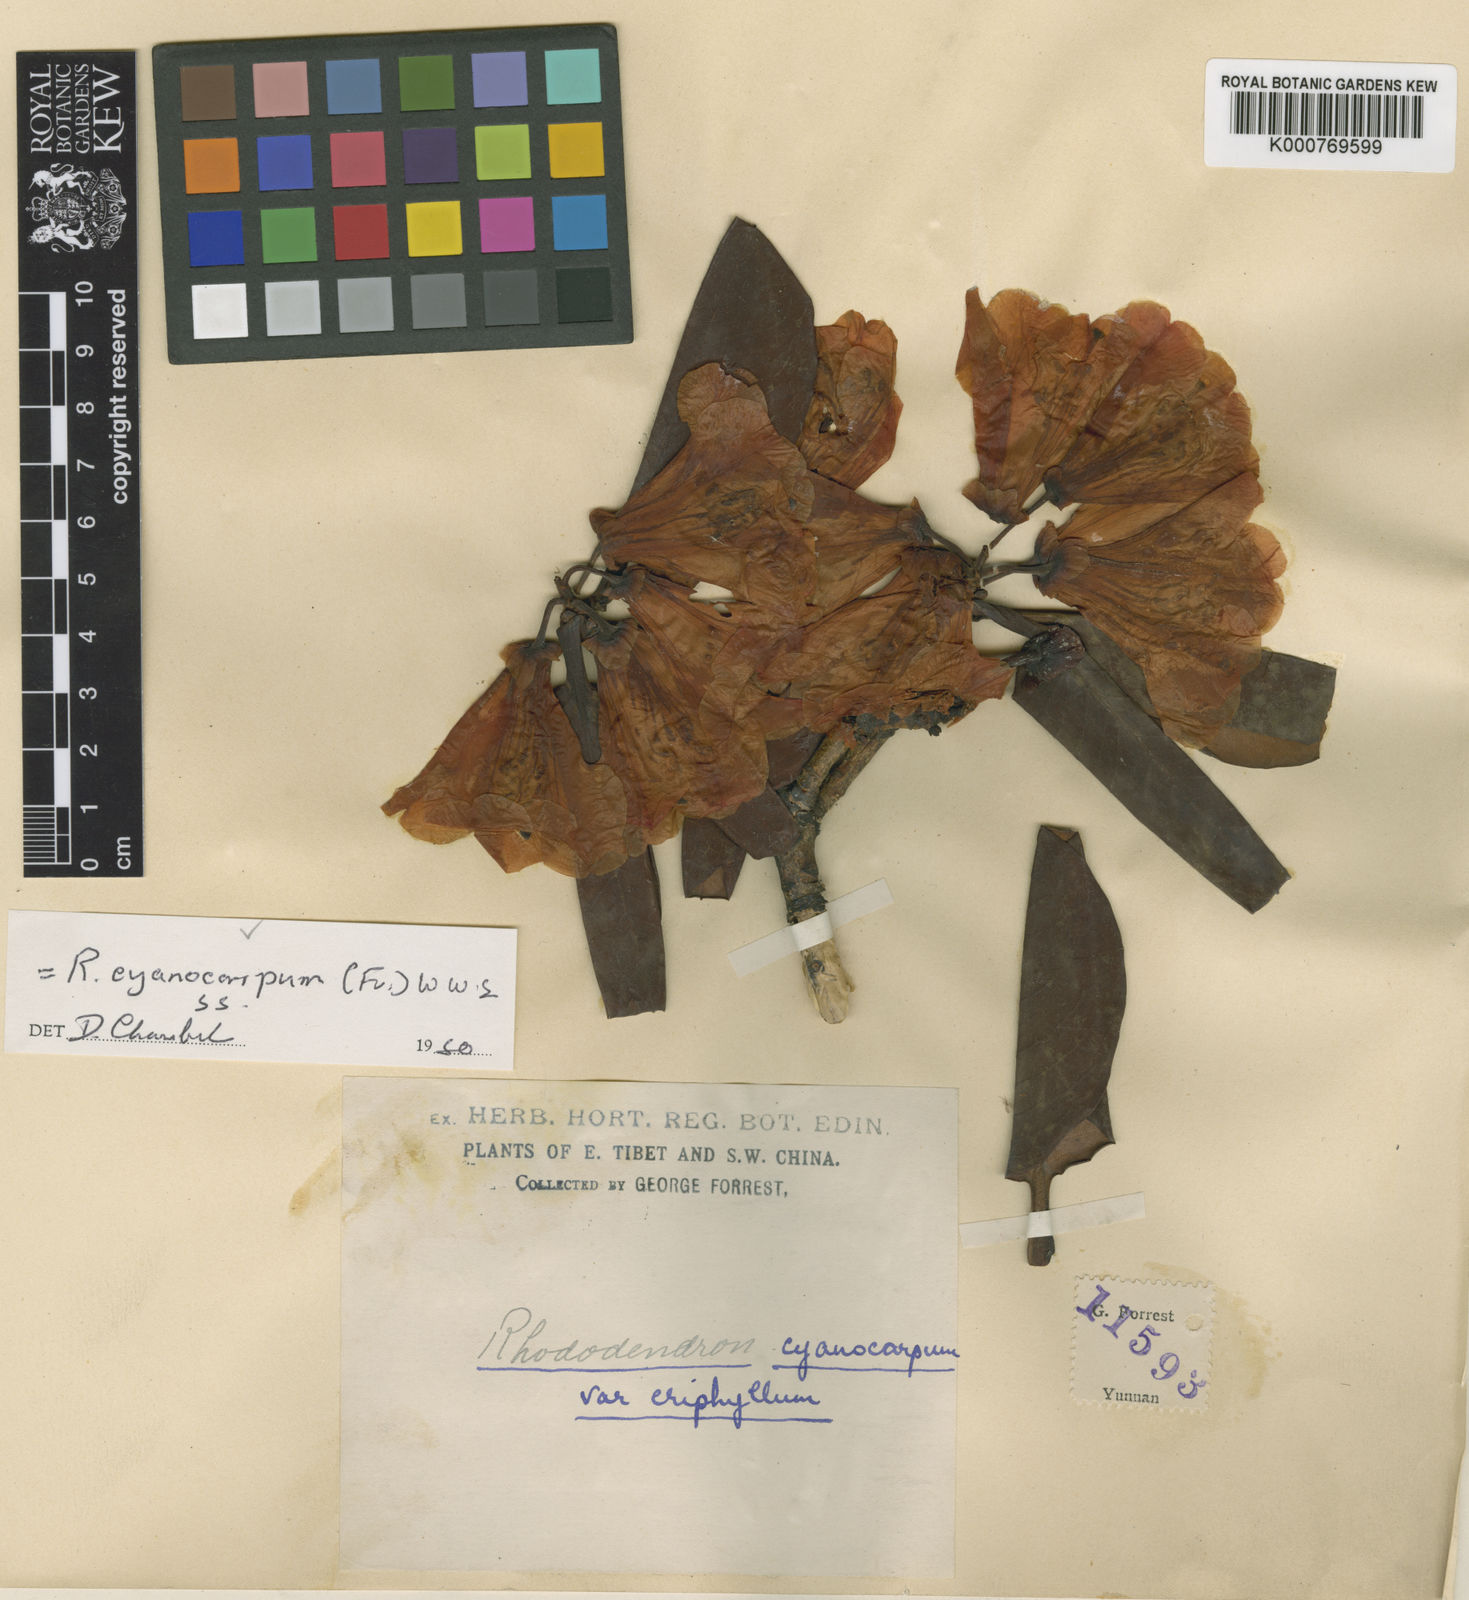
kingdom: Plantae
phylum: Tracheophyta
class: Magnoliopsida
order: Ericales
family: Ericaceae
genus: Rhododendron
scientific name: Rhododendron cyanocarpum
